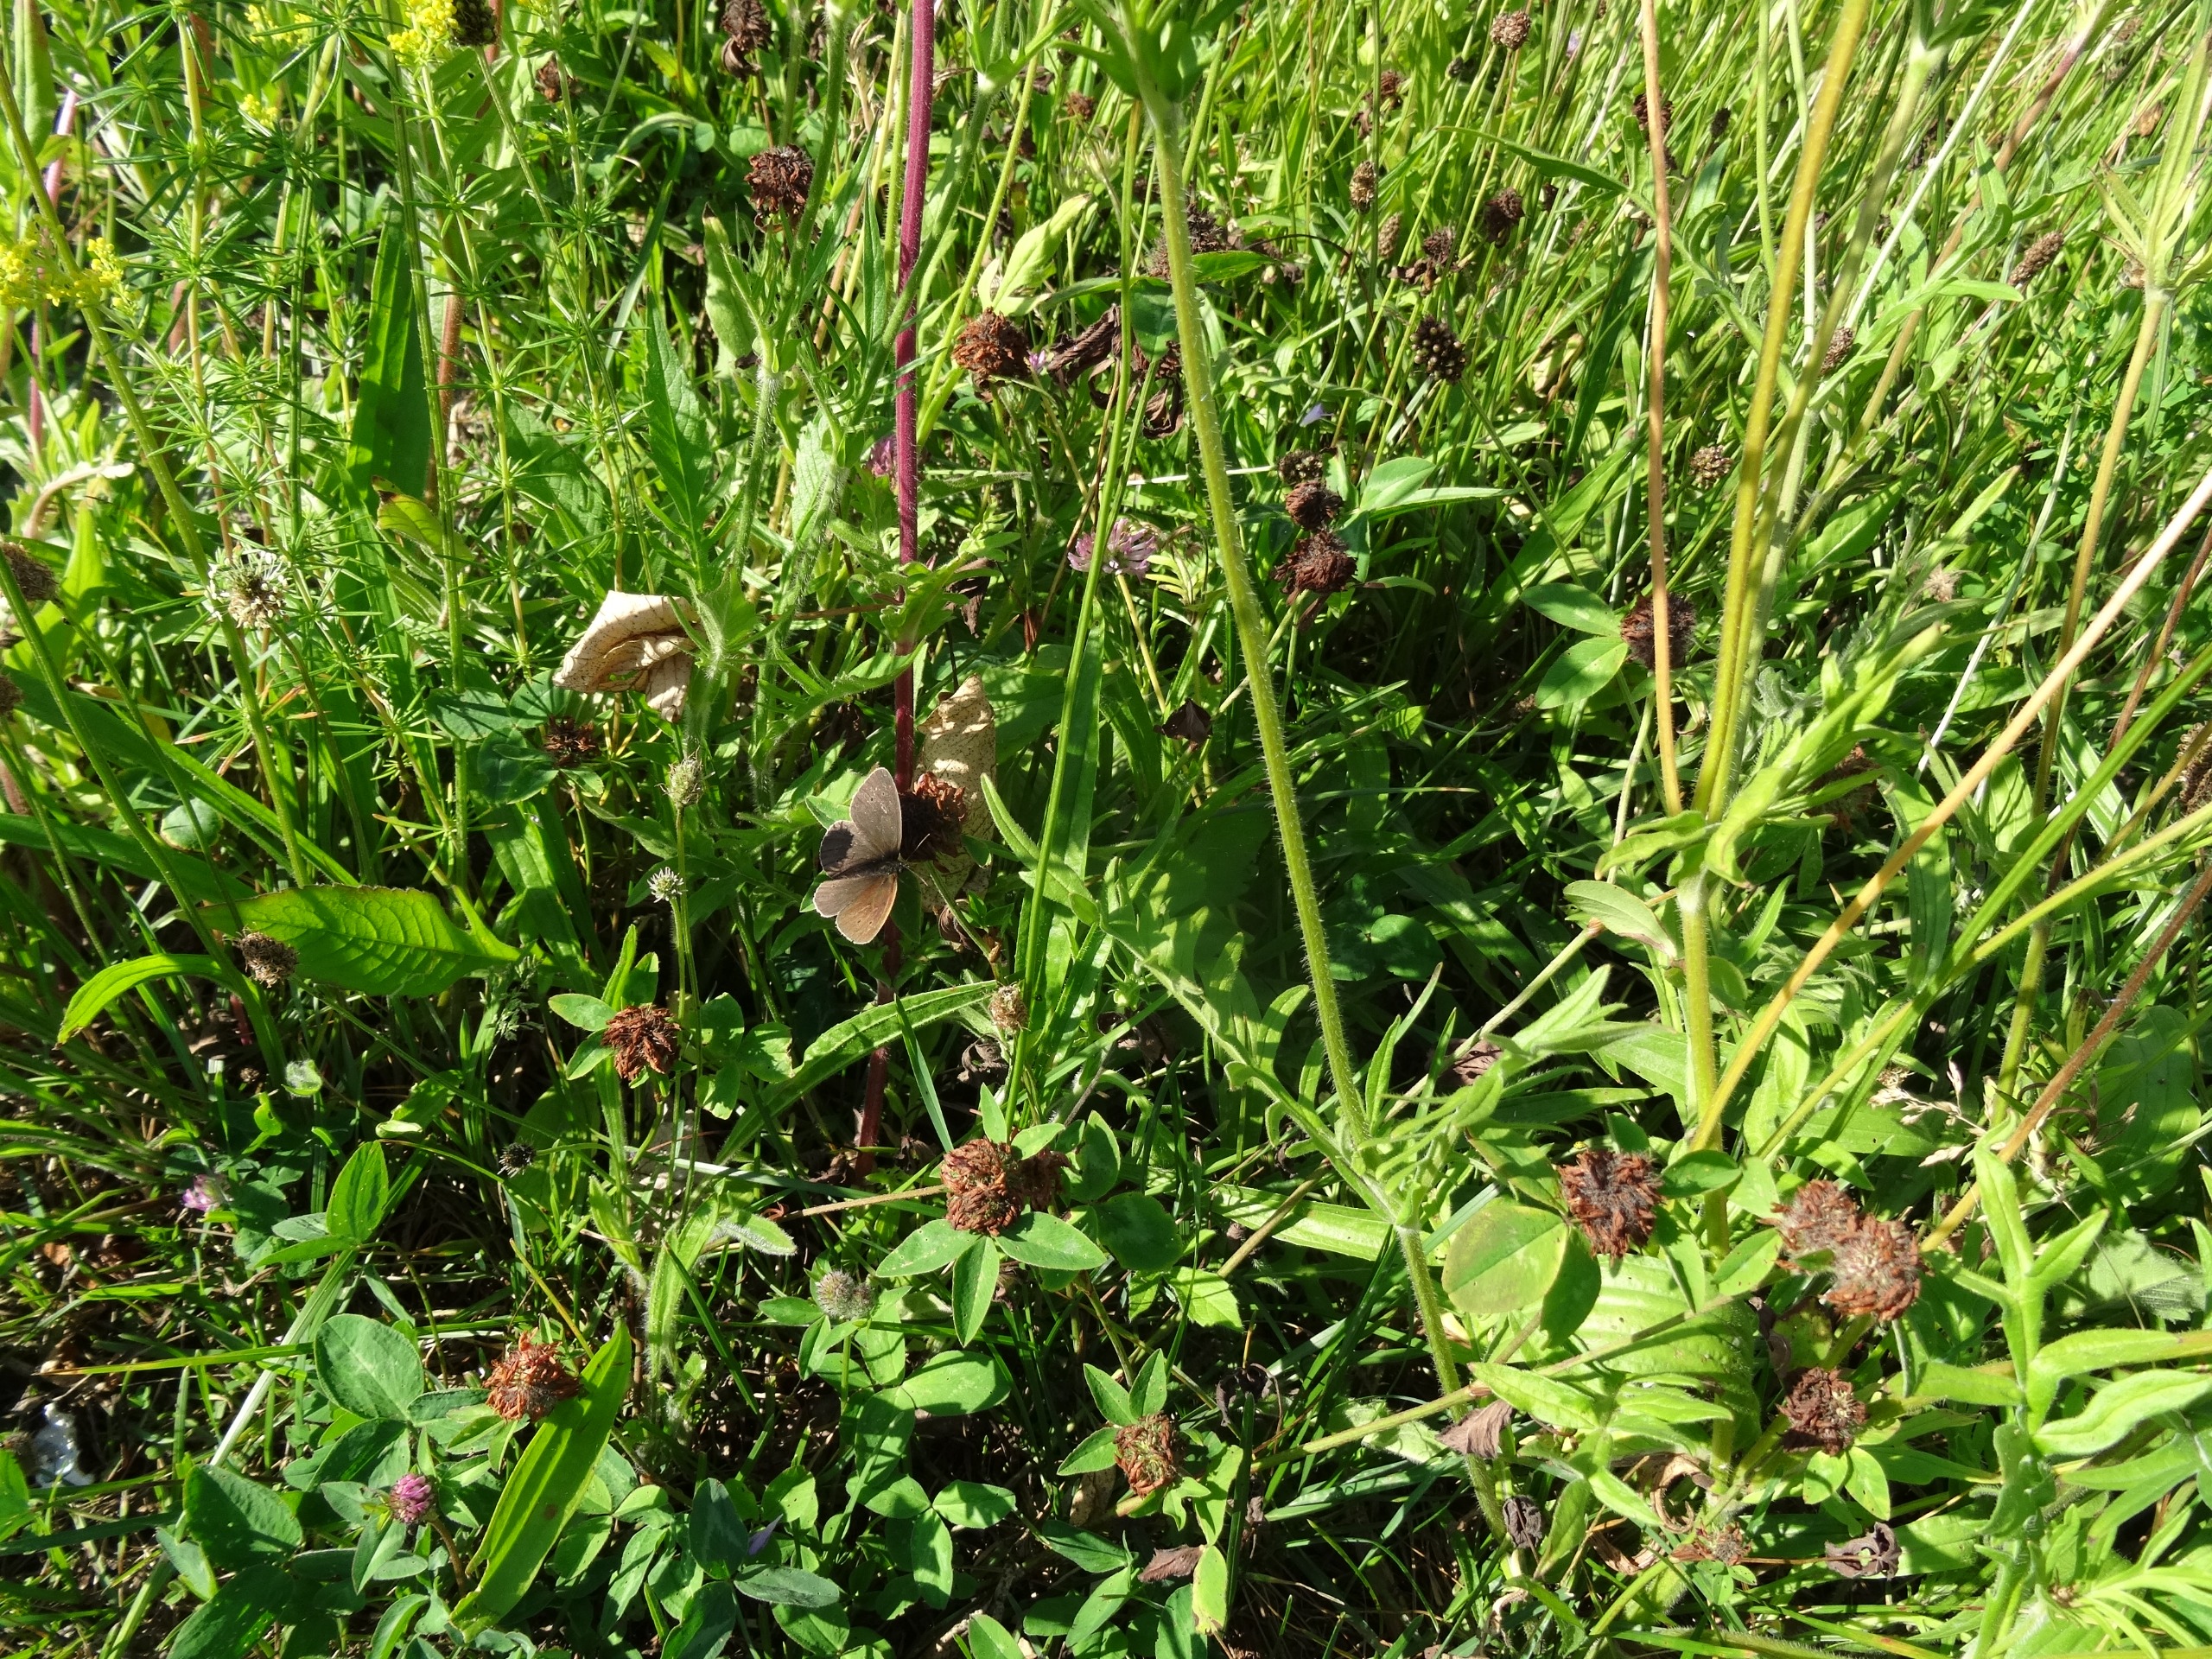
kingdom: Animalia
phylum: Arthropoda
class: Insecta
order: Lepidoptera
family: Nymphalidae
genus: Aphantopus
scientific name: Aphantopus hyperantus
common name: Engrandøje
